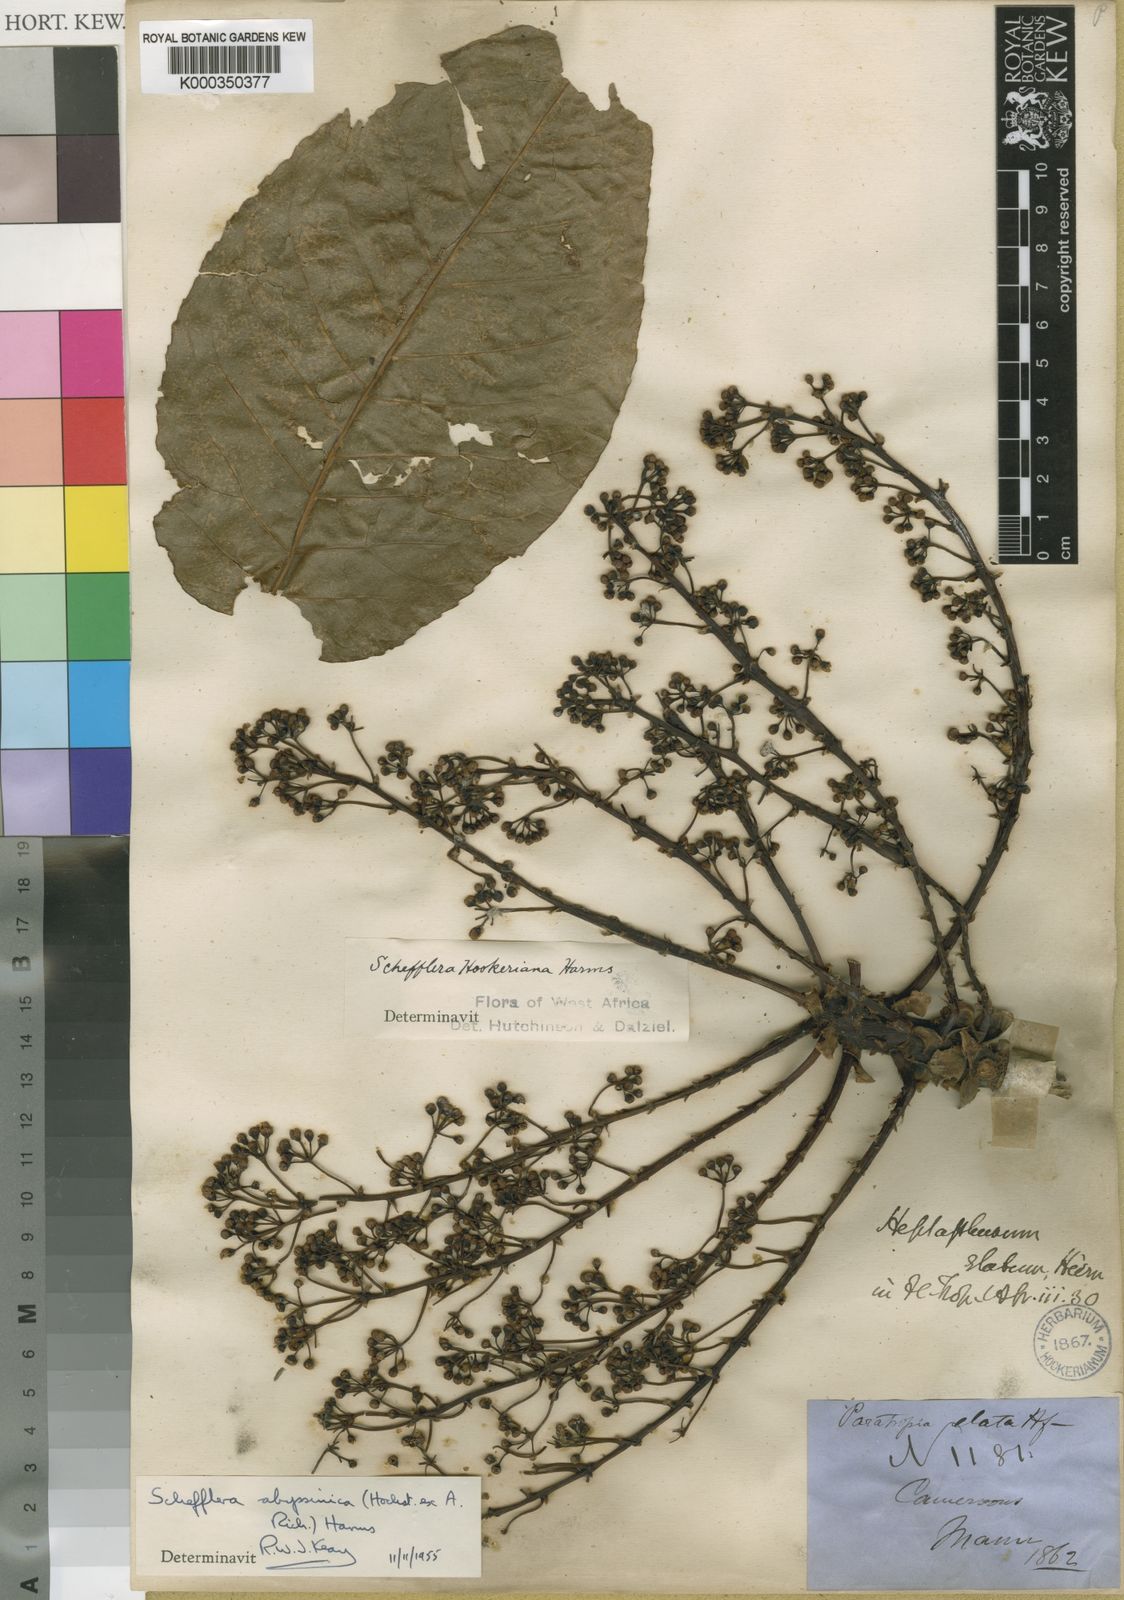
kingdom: Plantae
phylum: Tracheophyta
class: Magnoliopsida
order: Apiales
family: Araliaceae
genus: Astropanax
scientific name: Astropanax abyssinicum
